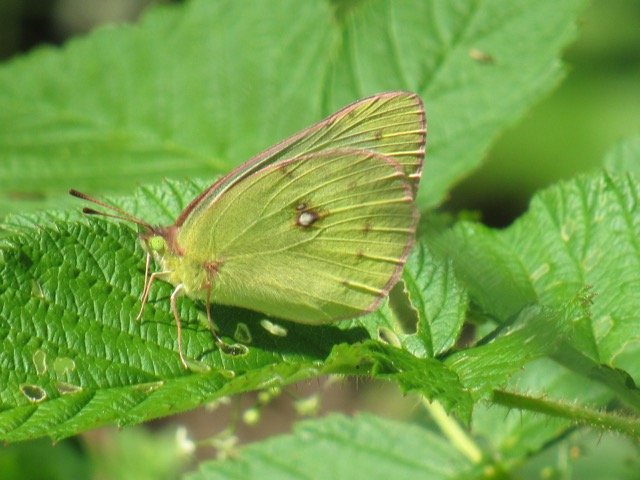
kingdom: Animalia
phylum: Arthropoda
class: Insecta
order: Lepidoptera
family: Pieridae
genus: Colias
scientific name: Colias philodice
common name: Clouded Sulphur
